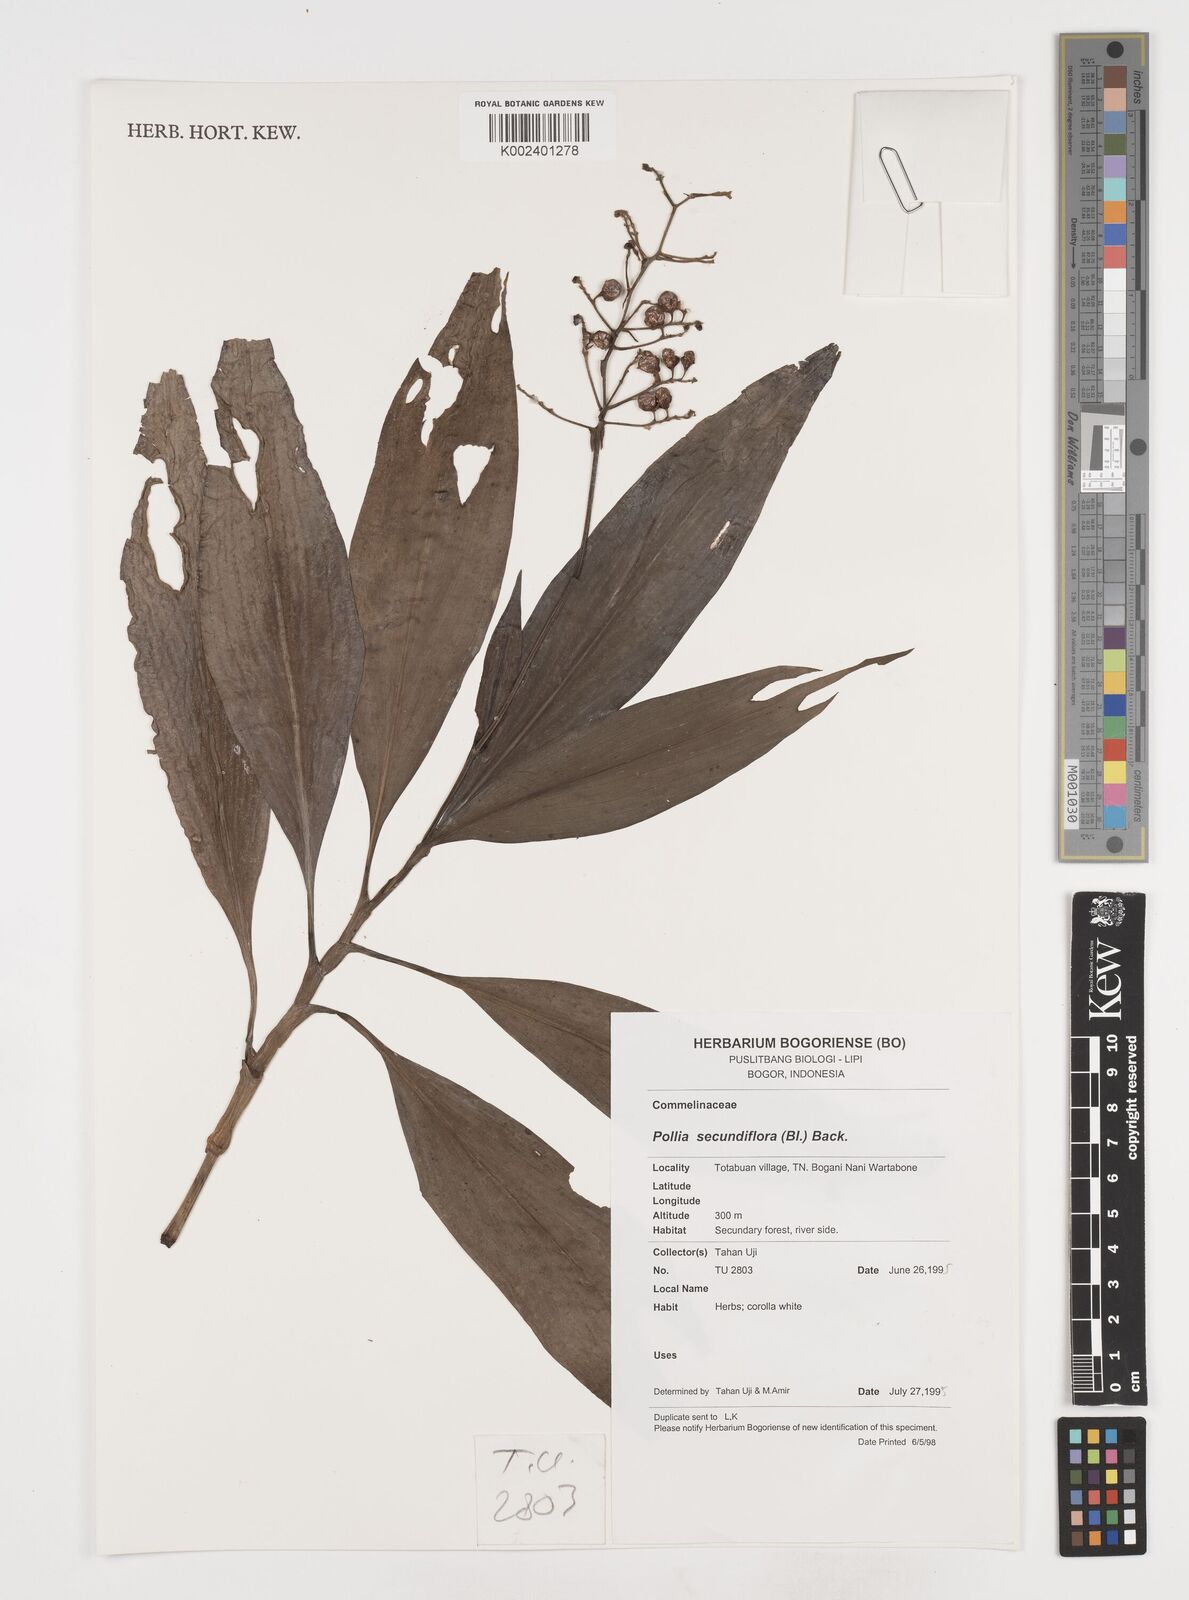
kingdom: Plantae
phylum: Tracheophyta
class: Liliopsida
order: Commelinales
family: Commelinaceae
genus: Pollia
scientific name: Pollia secundiflora
